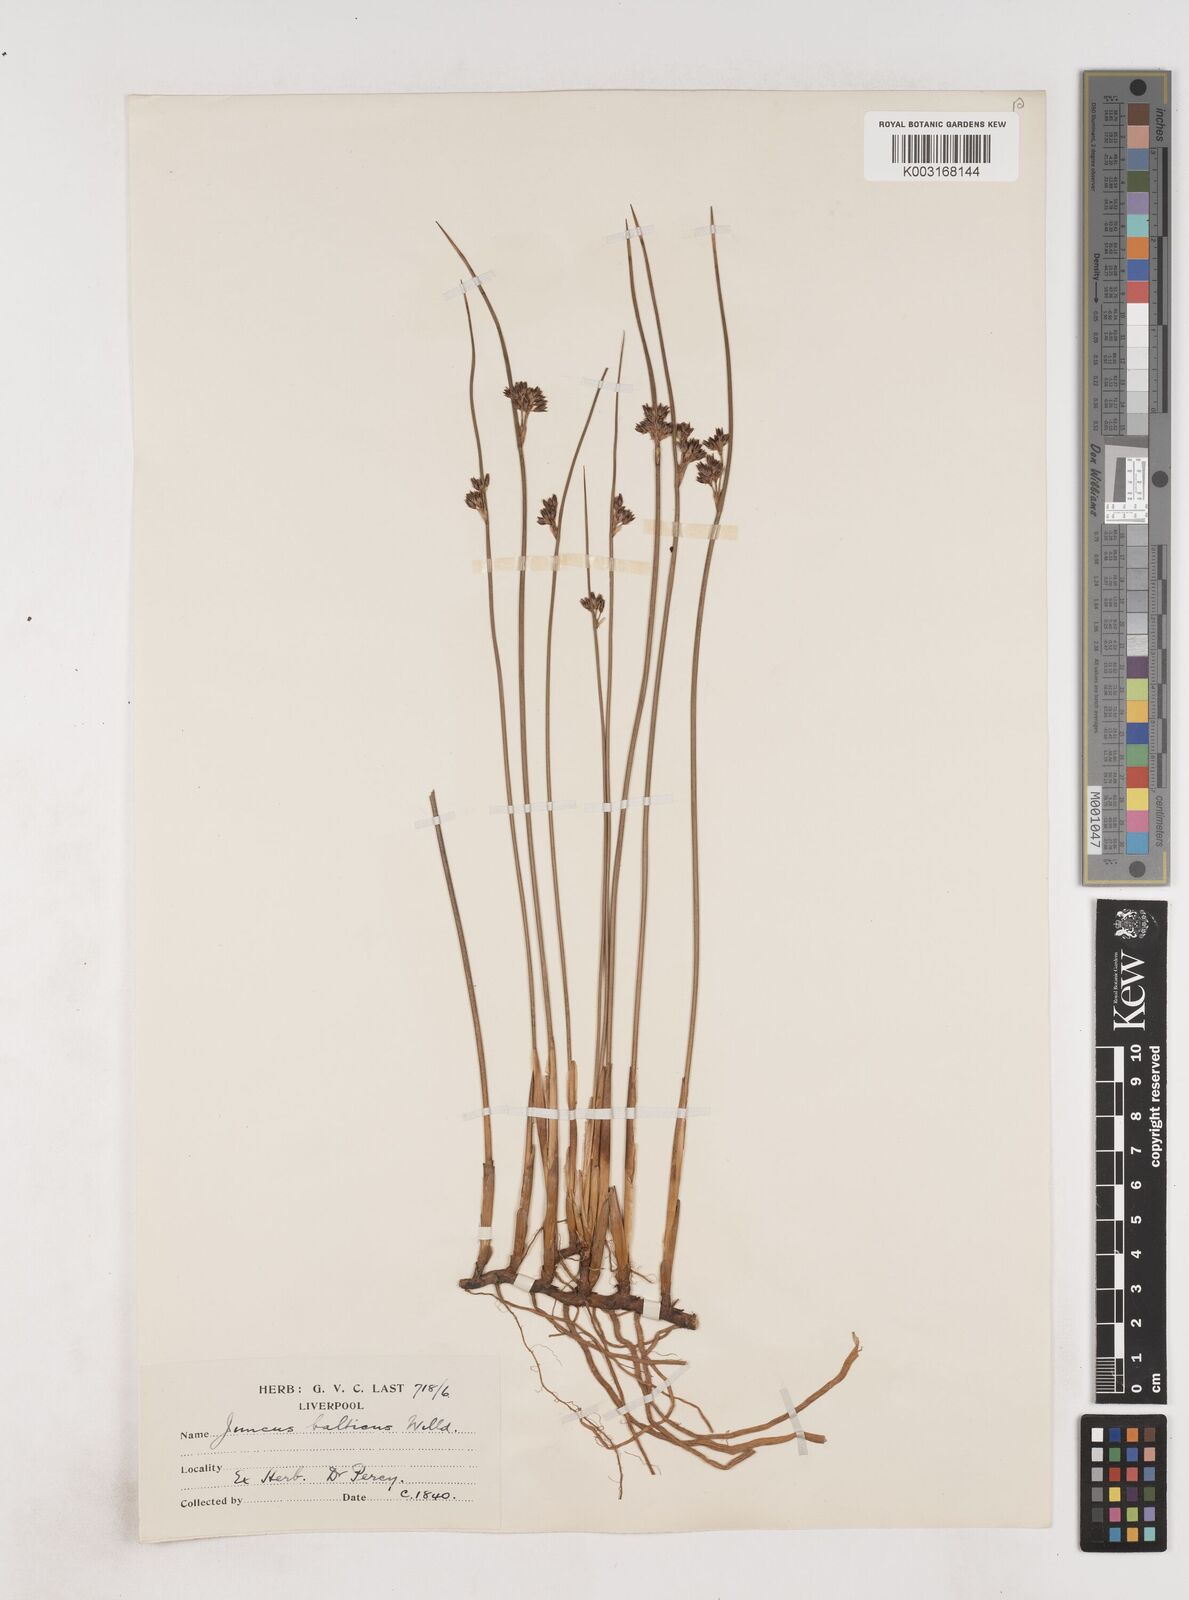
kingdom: Plantae
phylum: Tracheophyta
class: Liliopsida
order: Poales
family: Juncaceae
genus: Juncus
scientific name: Juncus balticus
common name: Baltic rush
